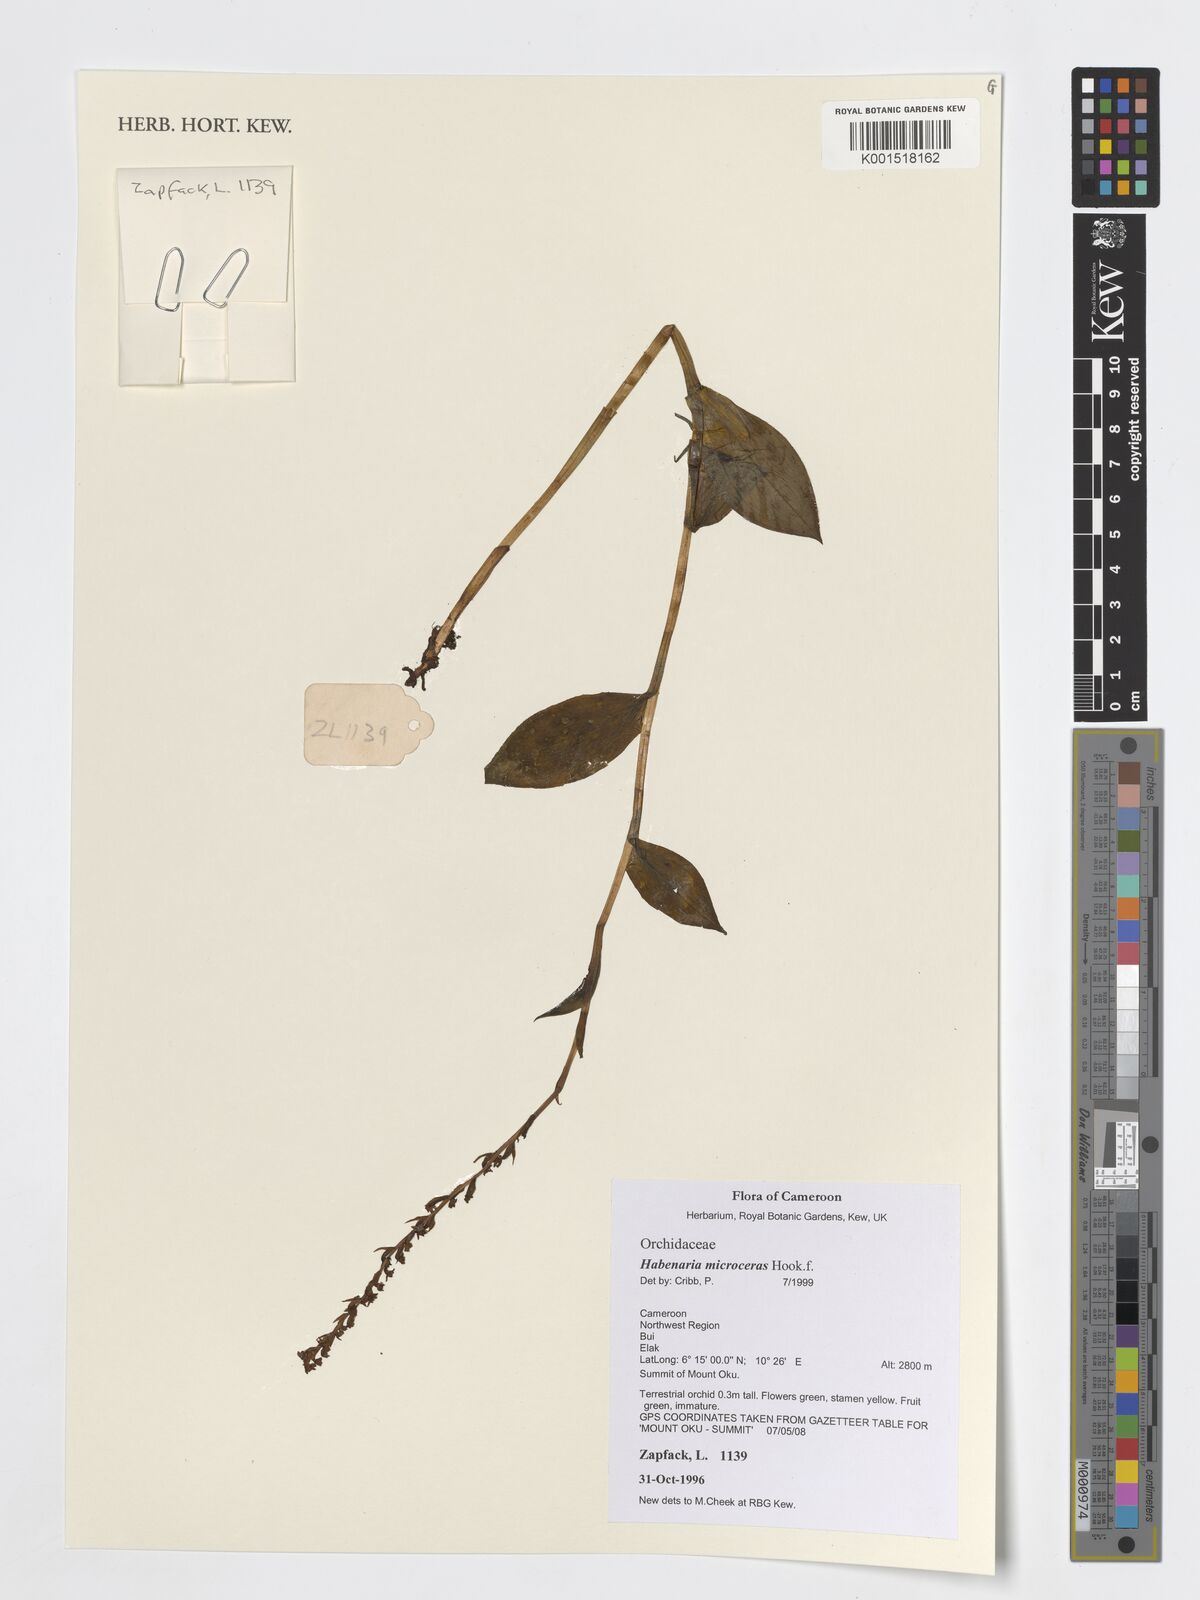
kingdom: Plantae
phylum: Tracheophyta
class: Liliopsida
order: Asparagales
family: Orchidaceae
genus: Habenaria
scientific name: Habenaria microceras
